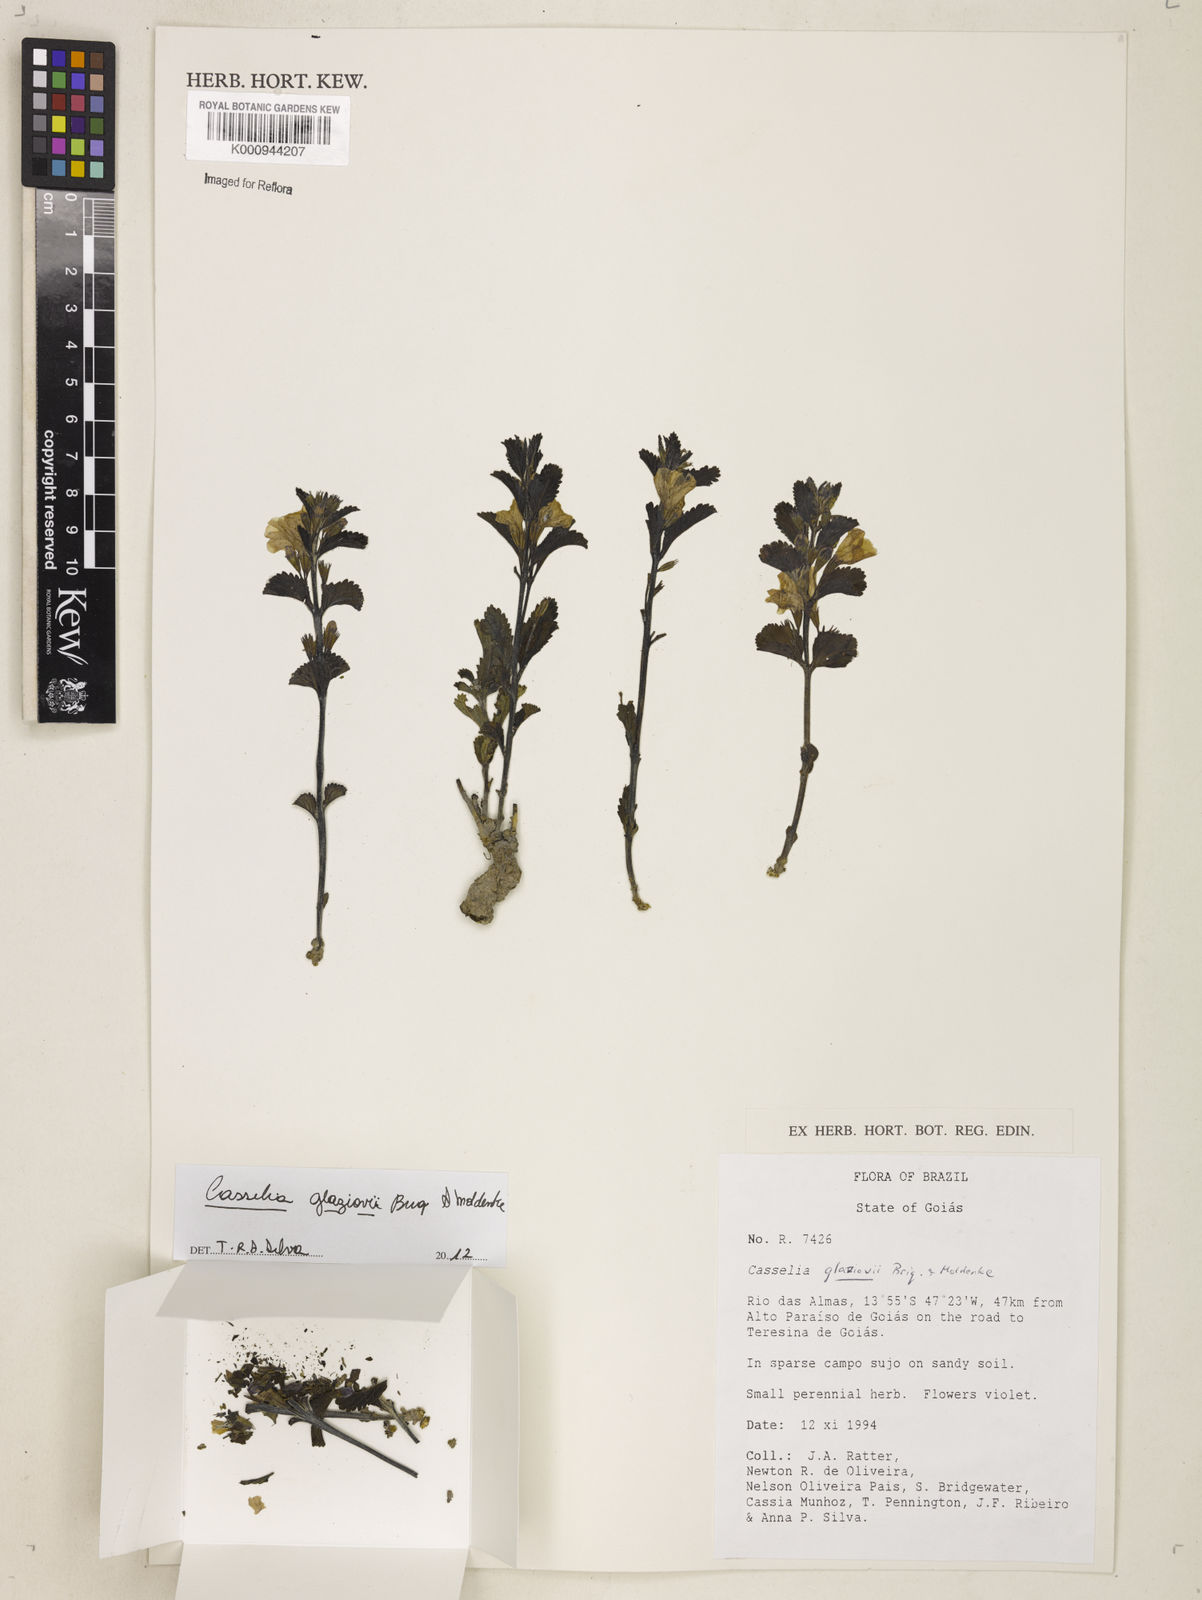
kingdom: Plantae
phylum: Tracheophyta
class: Magnoliopsida
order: Lamiales
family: Verbenaceae
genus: Casselia
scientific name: Casselia glaziovii
